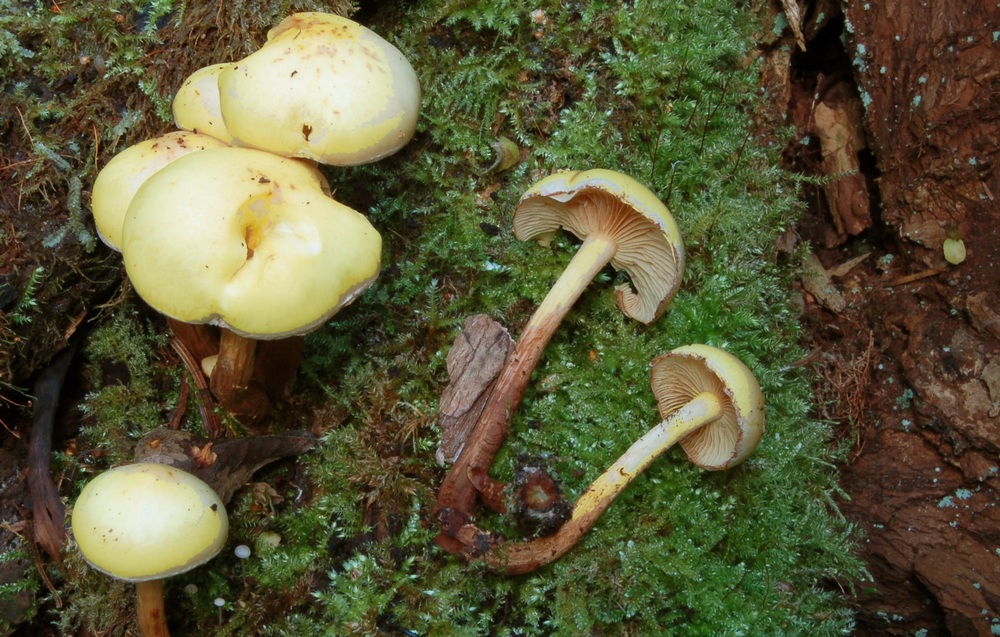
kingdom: Fungi
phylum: Basidiomycota
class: Agaricomycetes
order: Agaricales
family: Hymenogastraceae
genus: Flammula
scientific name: Flammula alnicola
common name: elle-skælhat
